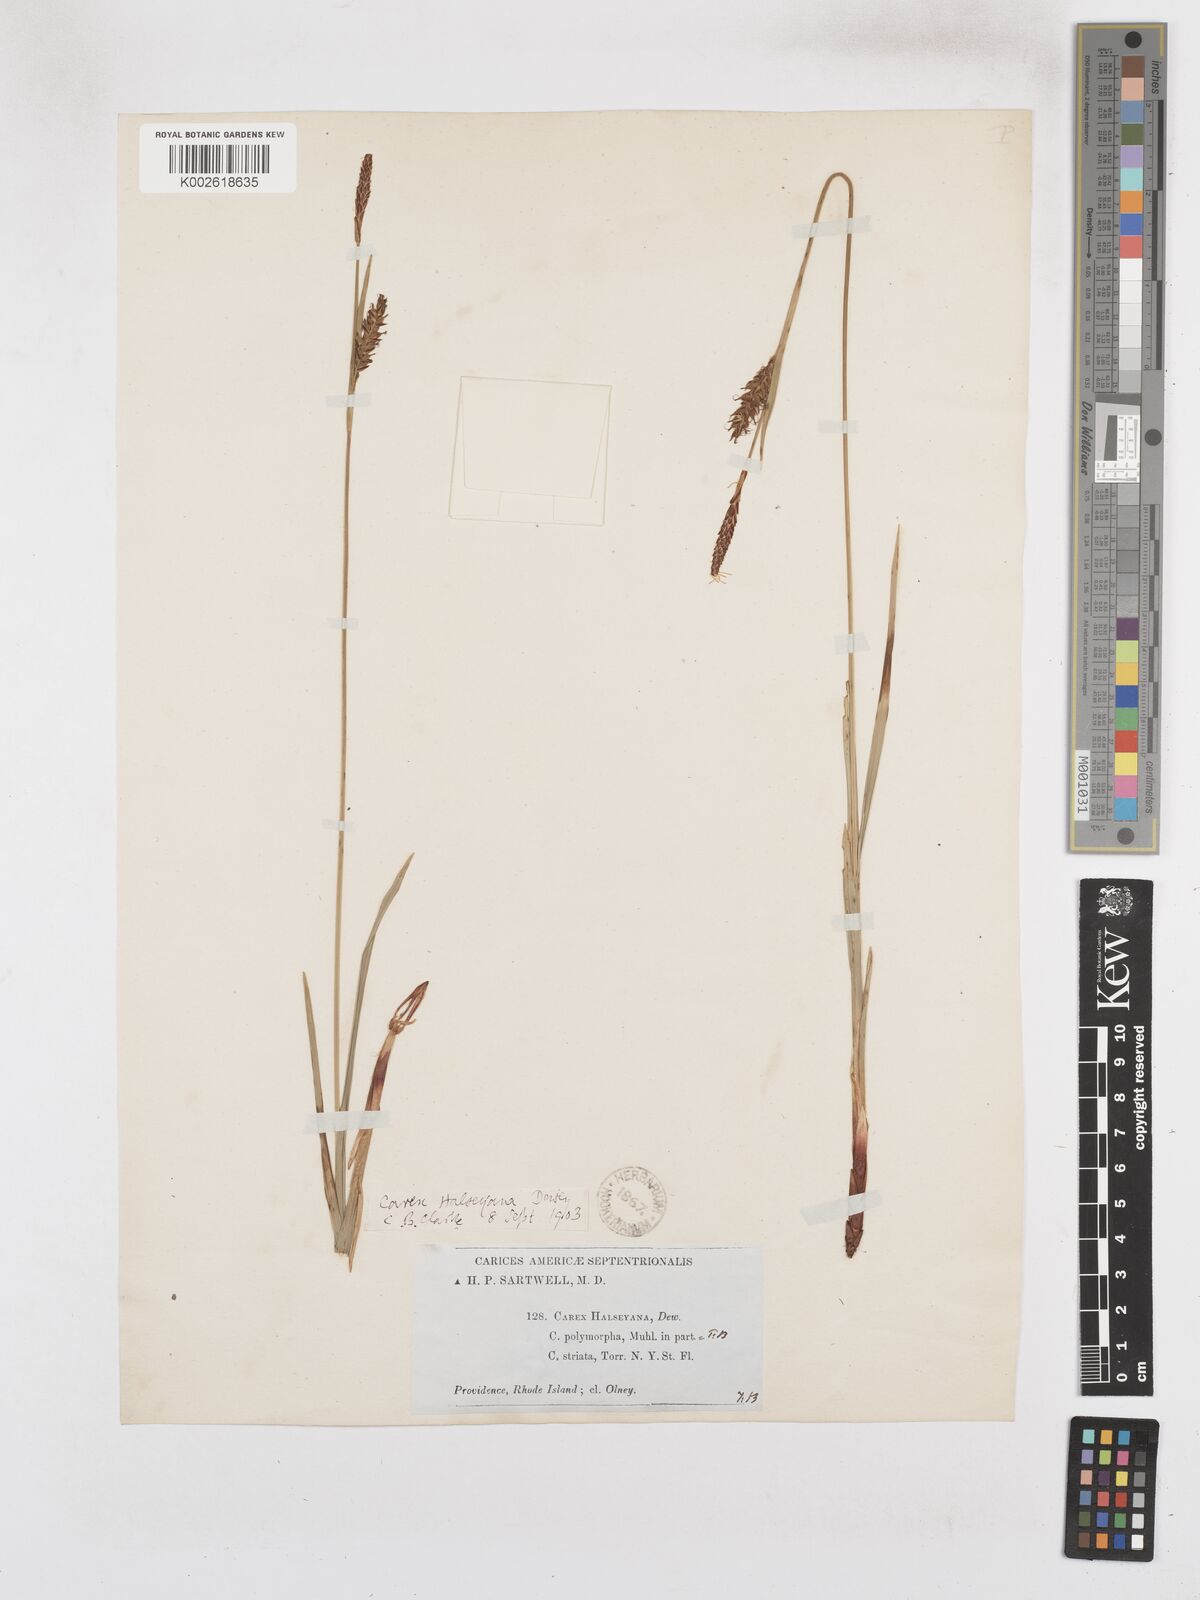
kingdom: Plantae
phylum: Tracheophyta
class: Liliopsida
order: Poales
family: Cyperaceae
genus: Carex
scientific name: Carex polymorpha
